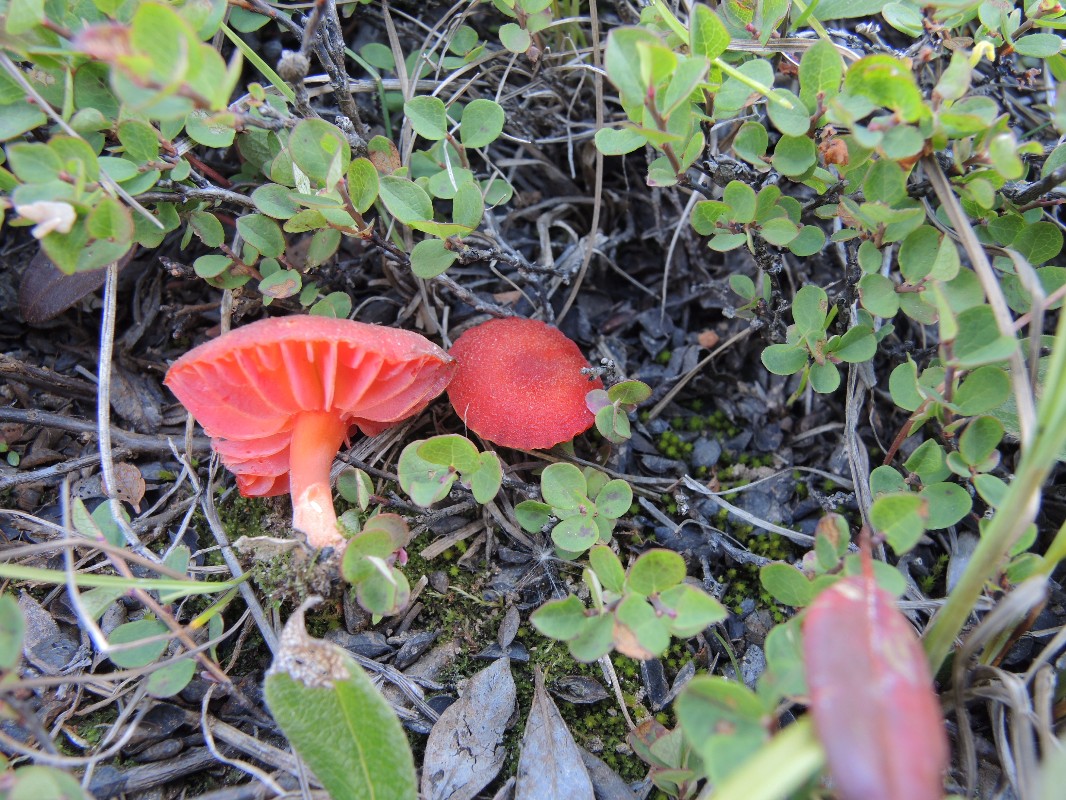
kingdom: Fungi
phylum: Basidiomycota
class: Agaricomycetes
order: Agaricales
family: Hygrophoraceae
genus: Hygrocybe
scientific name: Hygrocybe rhodophylla
